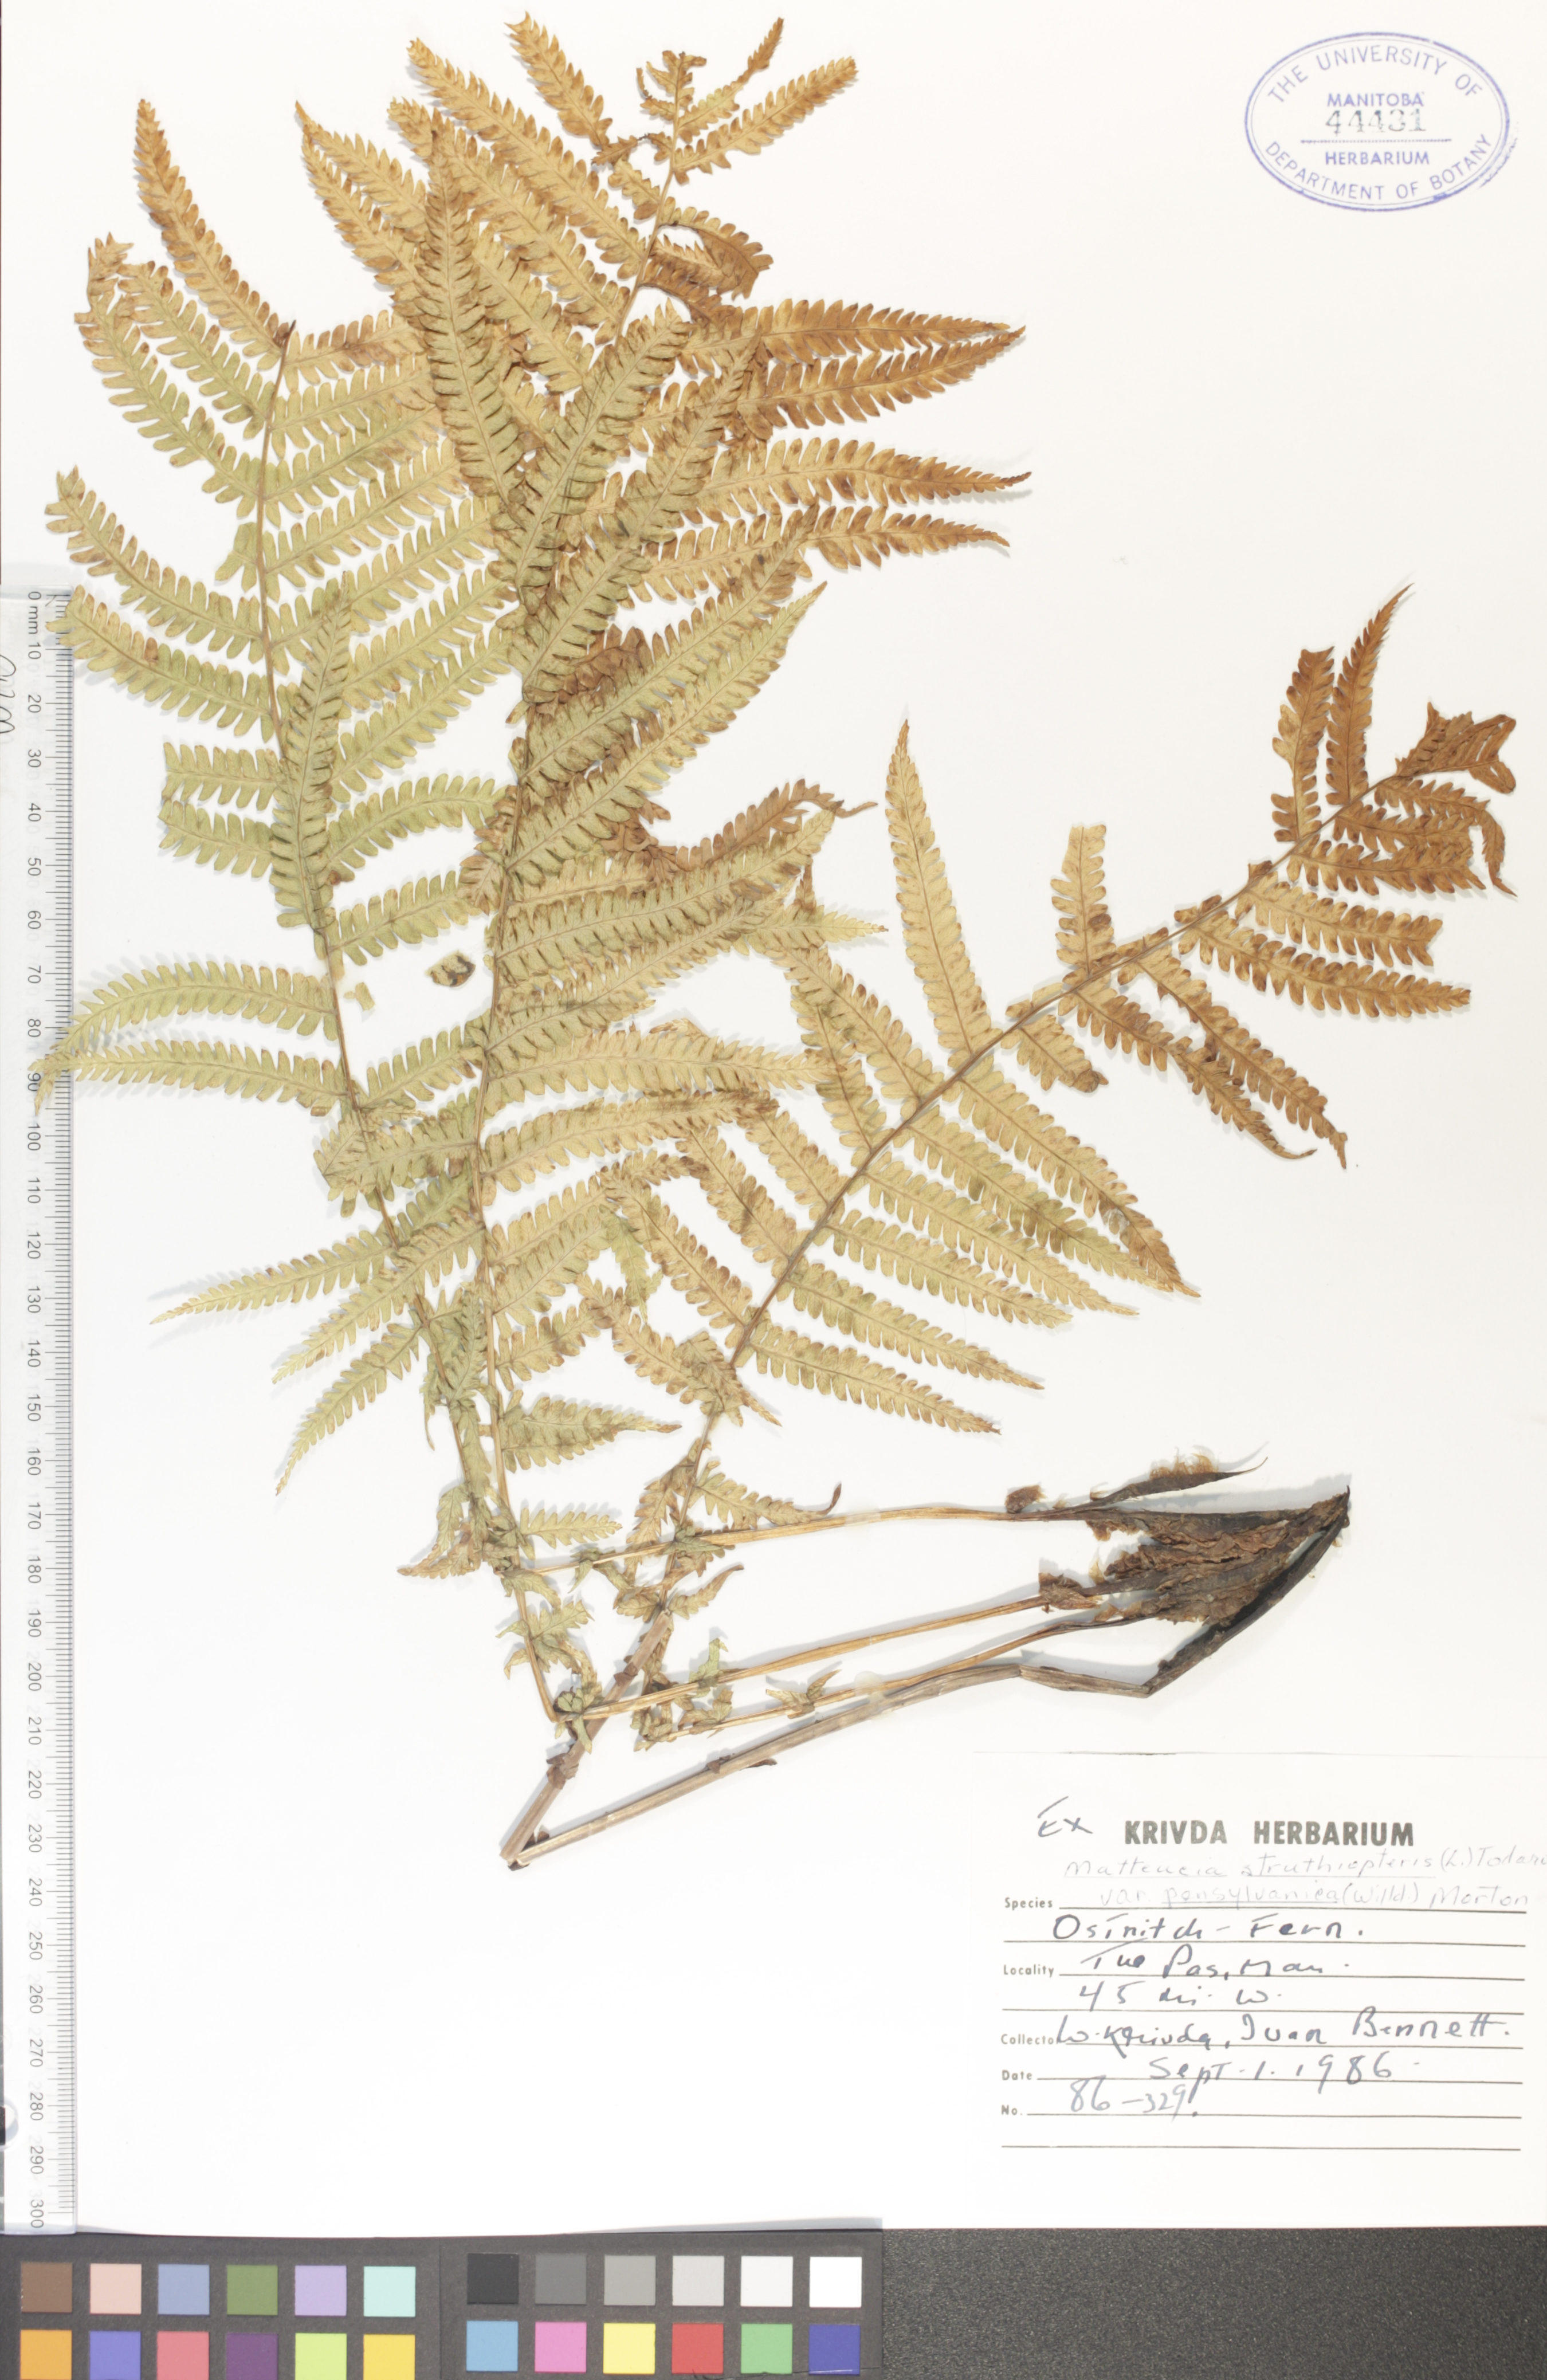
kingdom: Plantae
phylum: Tracheophyta
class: Polypodiopsida
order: Polypodiales
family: Onocleaceae
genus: Matteuccia
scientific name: Matteuccia pensylvanica
